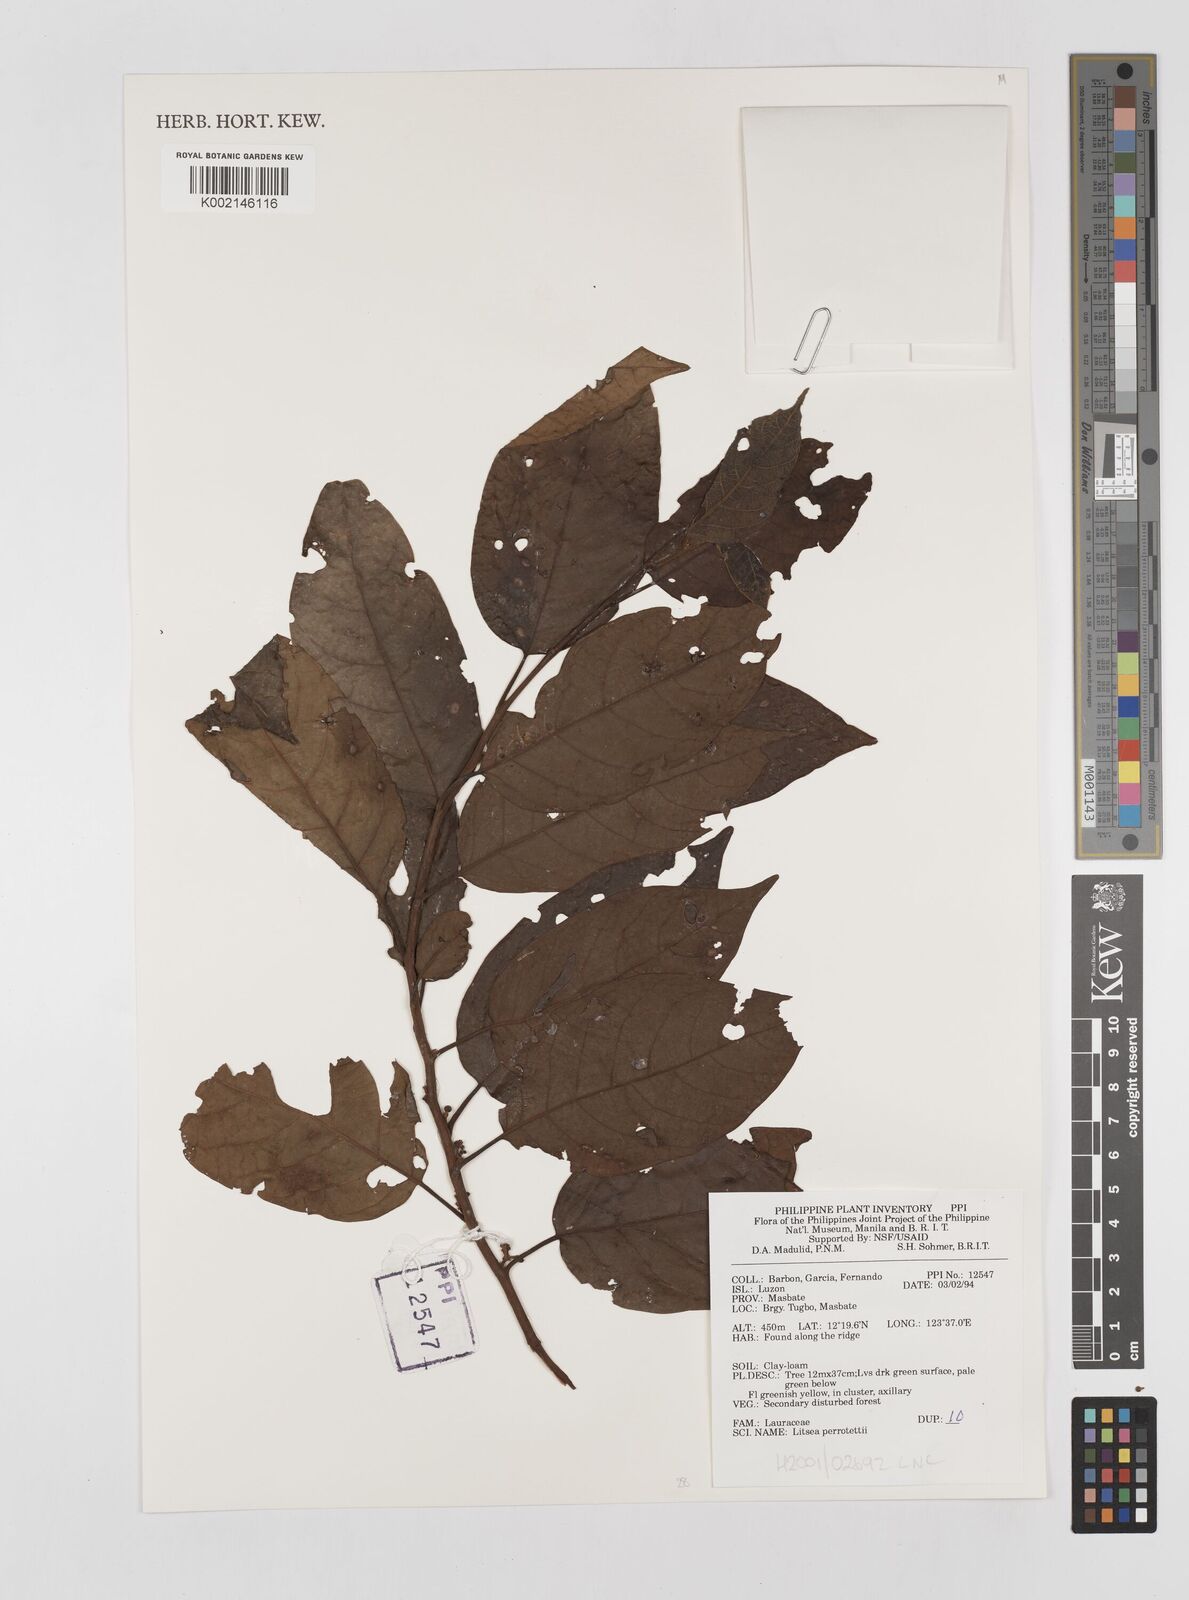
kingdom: Plantae
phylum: Tracheophyta
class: Magnoliopsida
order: Laurales
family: Lauraceae
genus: Litsea
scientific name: Litsea cordata
